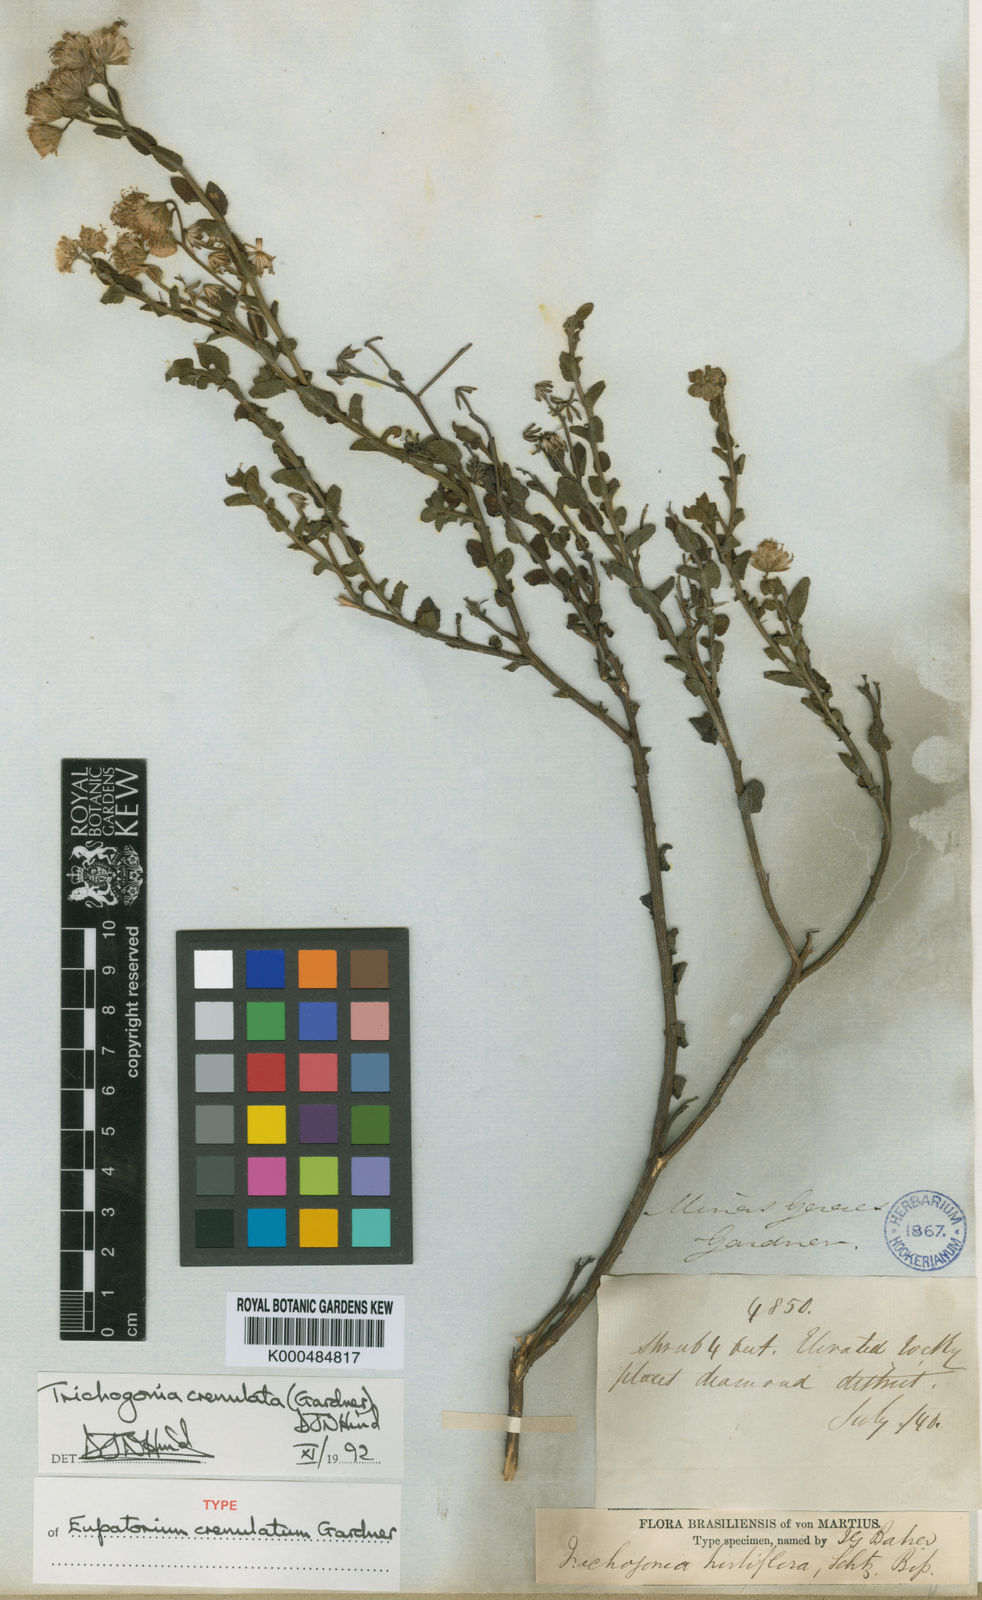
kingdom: Plantae
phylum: Tracheophyta
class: Magnoliopsida
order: Asterales
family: Asteraceae
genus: Trichogonia
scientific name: Trichogonia crenulata
